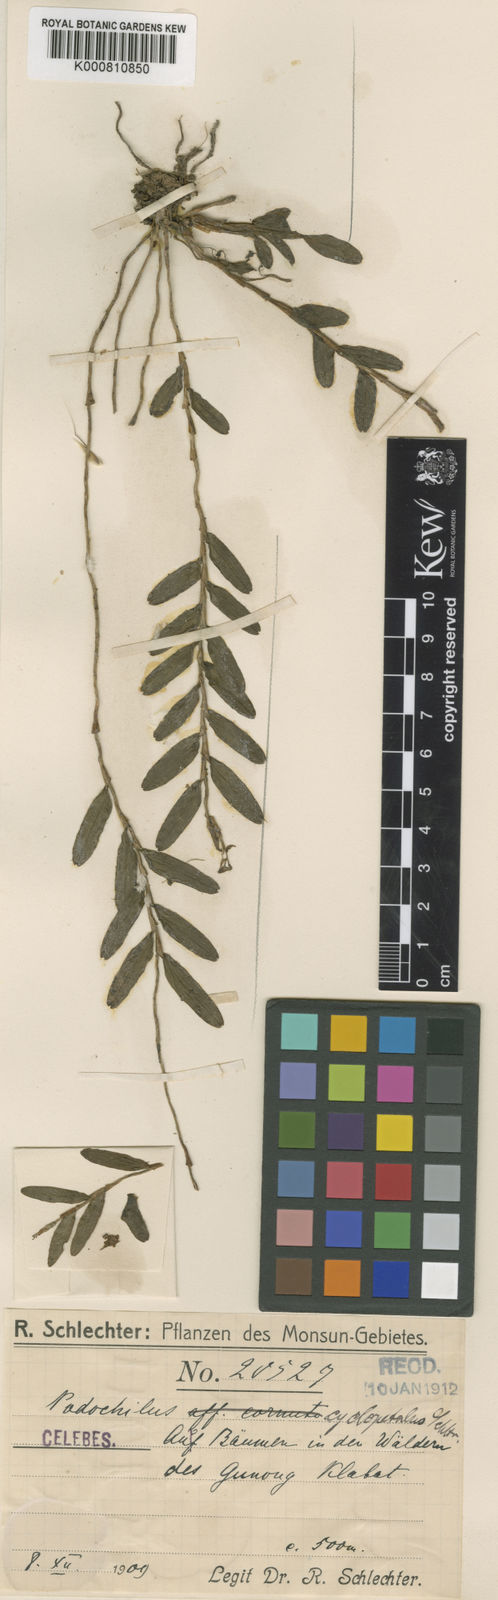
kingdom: Plantae
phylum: Tracheophyta
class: Liliopsida
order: Asparagales
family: Orchidaceae
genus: Appendicula
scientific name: Appendicula cornuta
